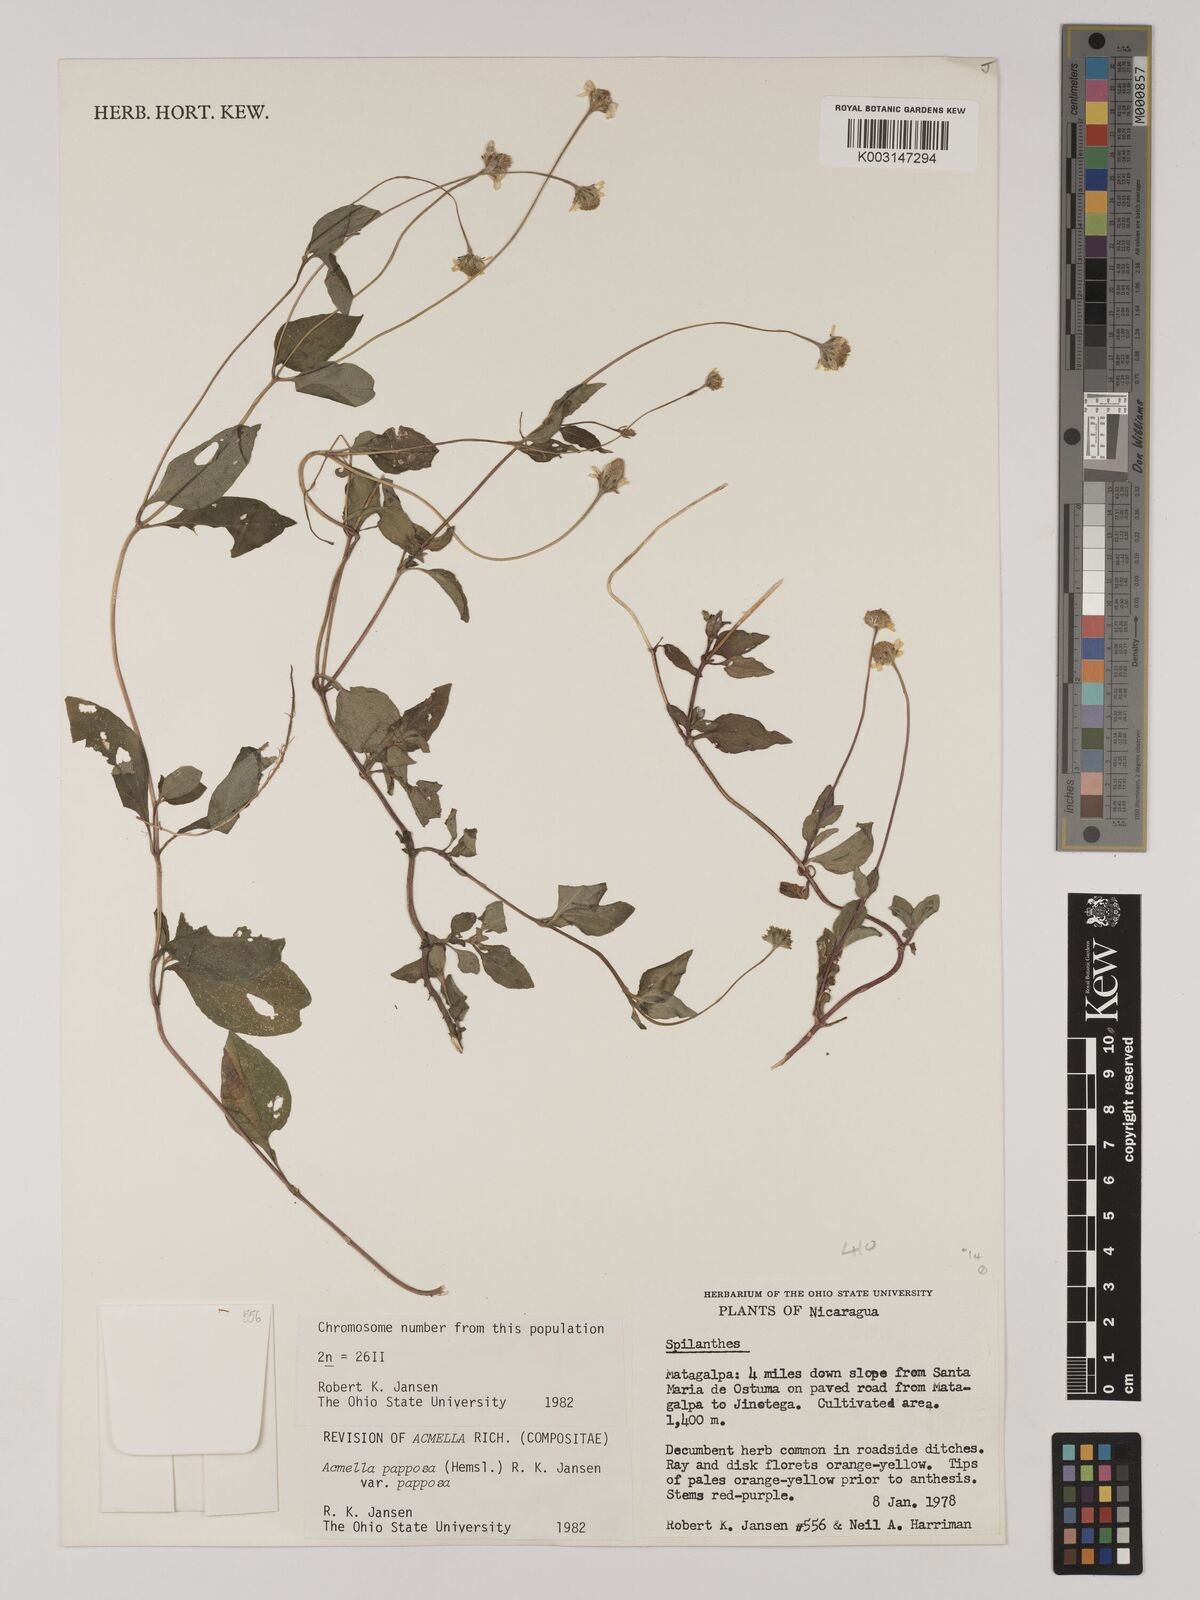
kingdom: Plantae
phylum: Tracheophyta
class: Magnoliopsida
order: Asterales
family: Asteraceae
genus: Acmella
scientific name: Acmella papposa
